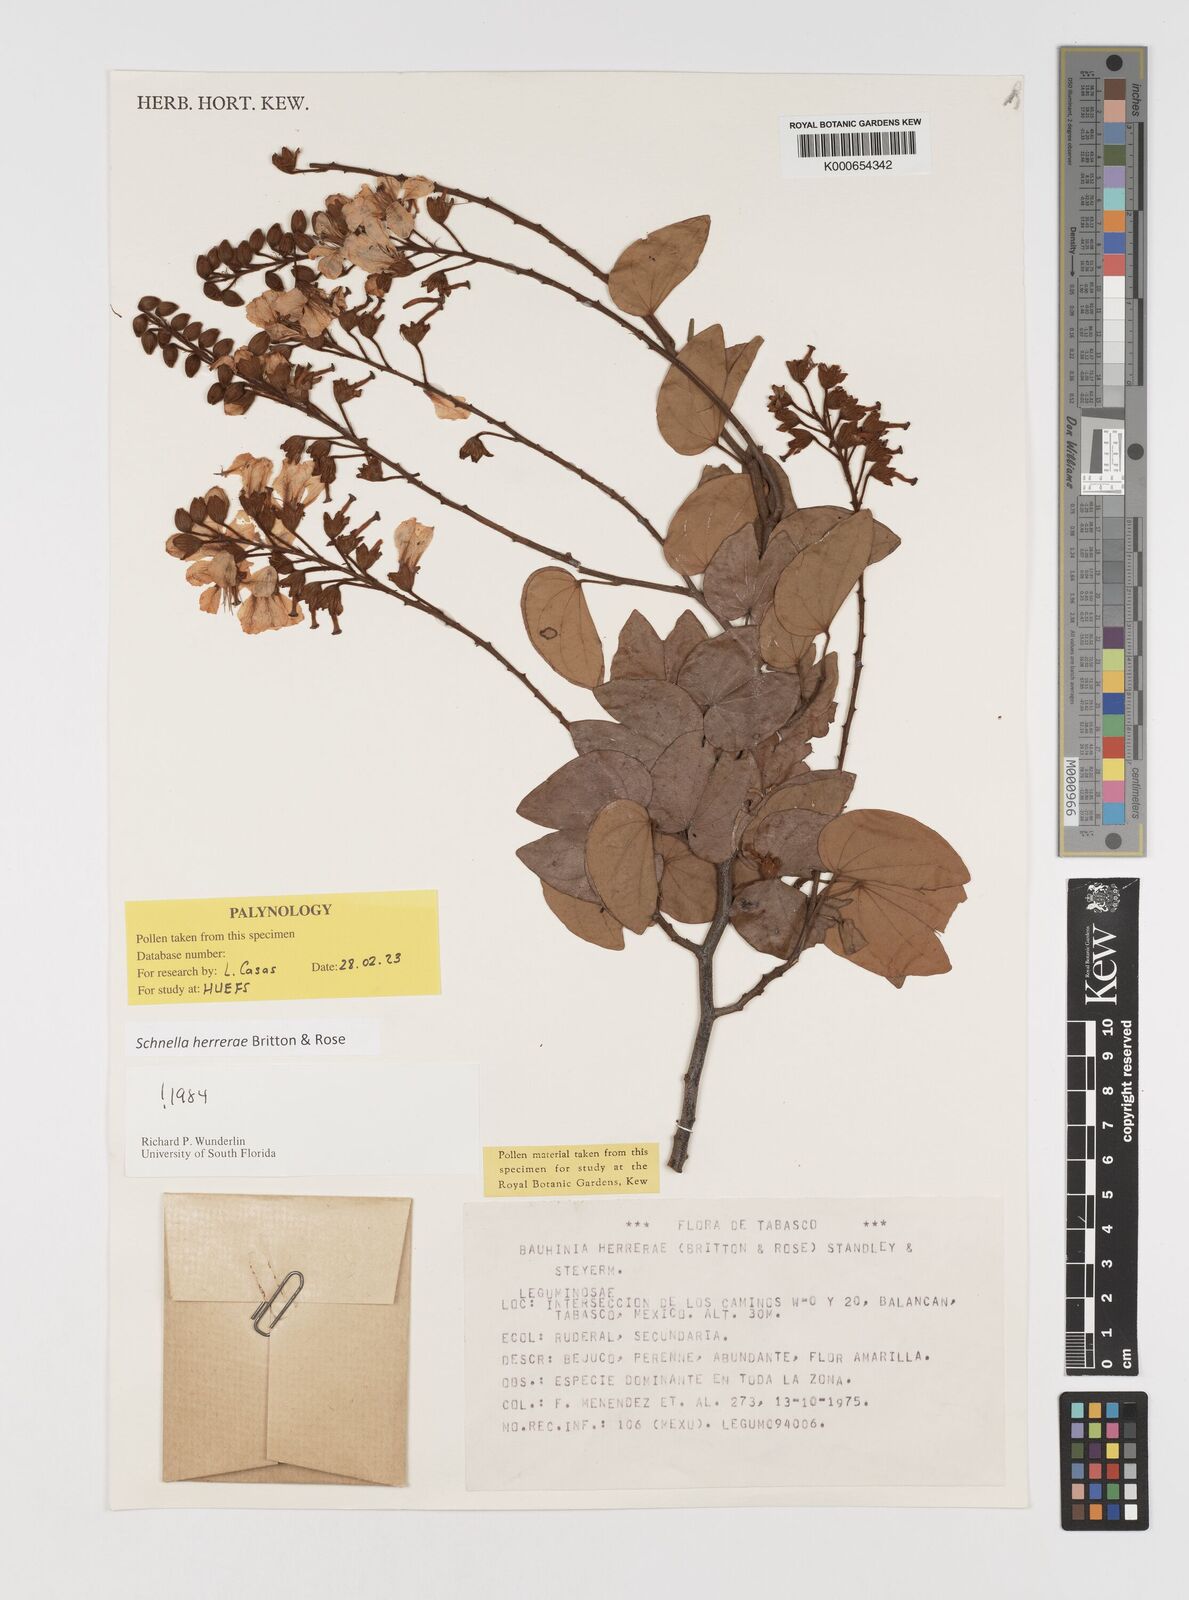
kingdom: Plantae
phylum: Tracheophyta
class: Magnoliopsida
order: Fabales
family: Fabaceae
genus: Schnella
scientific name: Schnella herrerae
